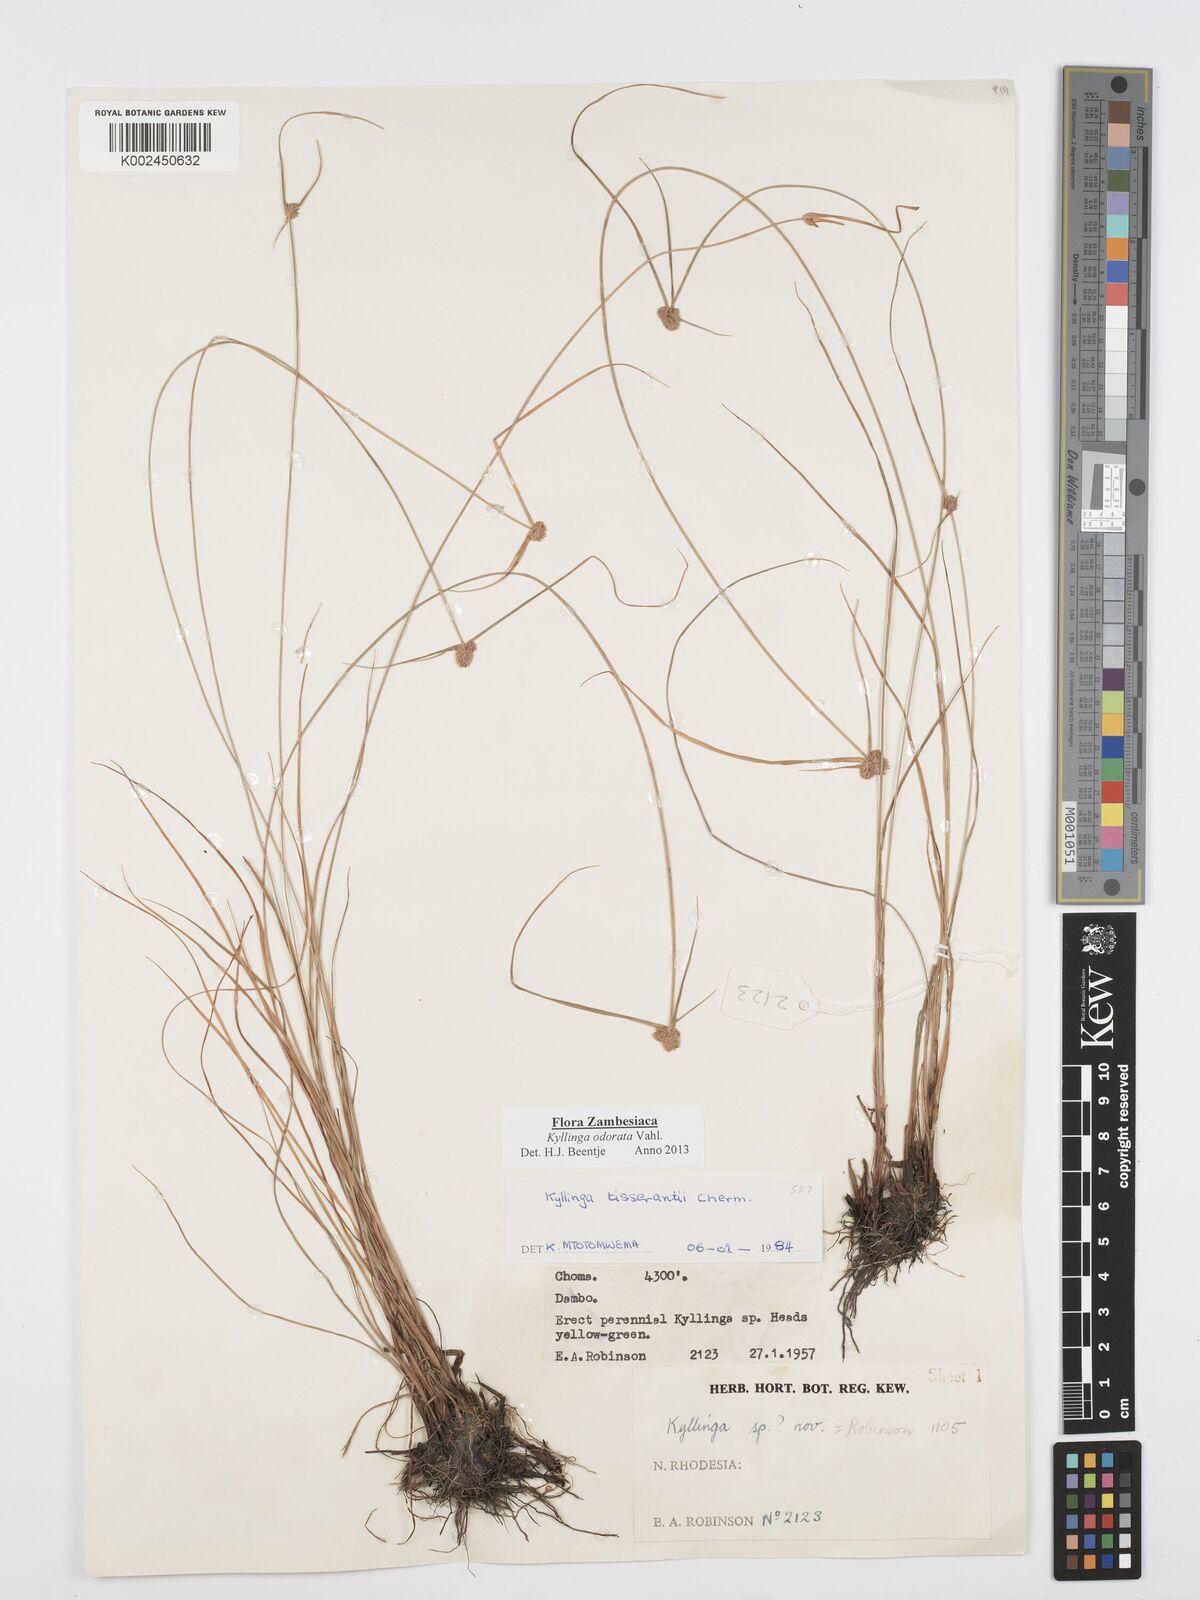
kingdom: Plantae
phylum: Tracheophyta
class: Liliopsida
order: Poales
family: Cyperaceae
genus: Cyperus
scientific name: Cyperus
